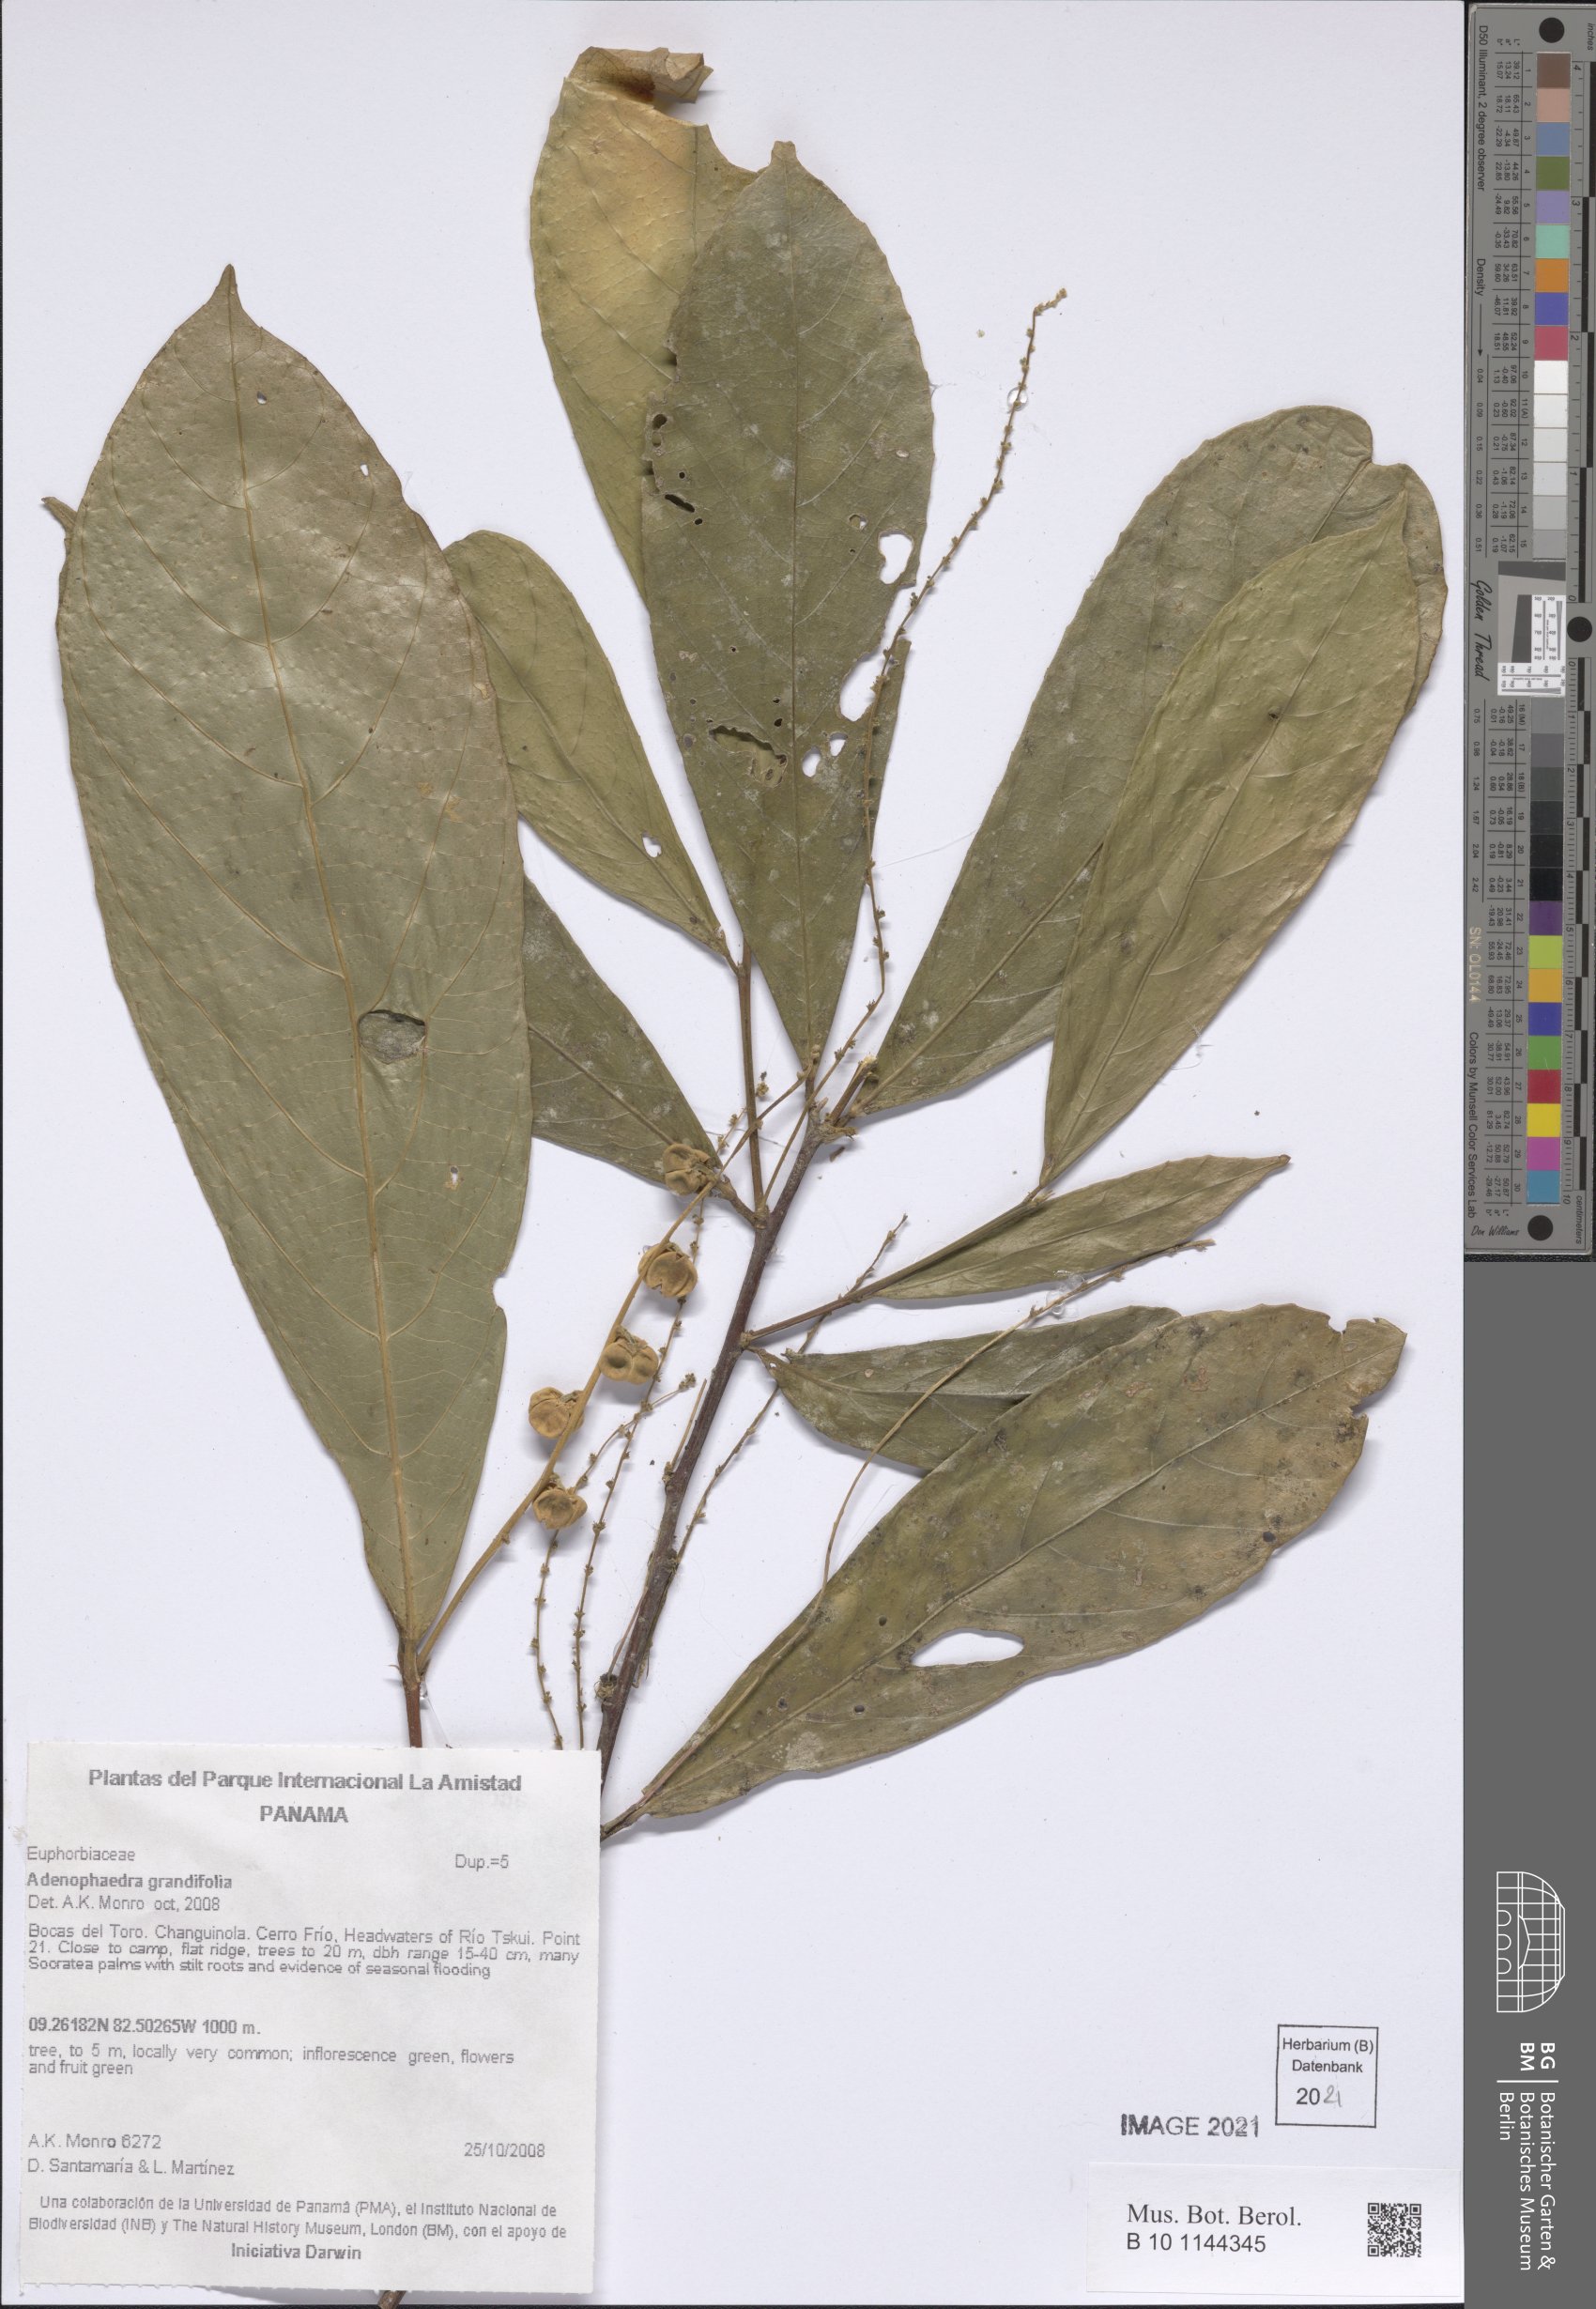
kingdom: Plantae
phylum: Tracheophyta
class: Magnoliopsida
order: Malpighiales
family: Euphorbiaceae
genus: Adenophaedra
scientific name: Adenophaedra grandifolia
